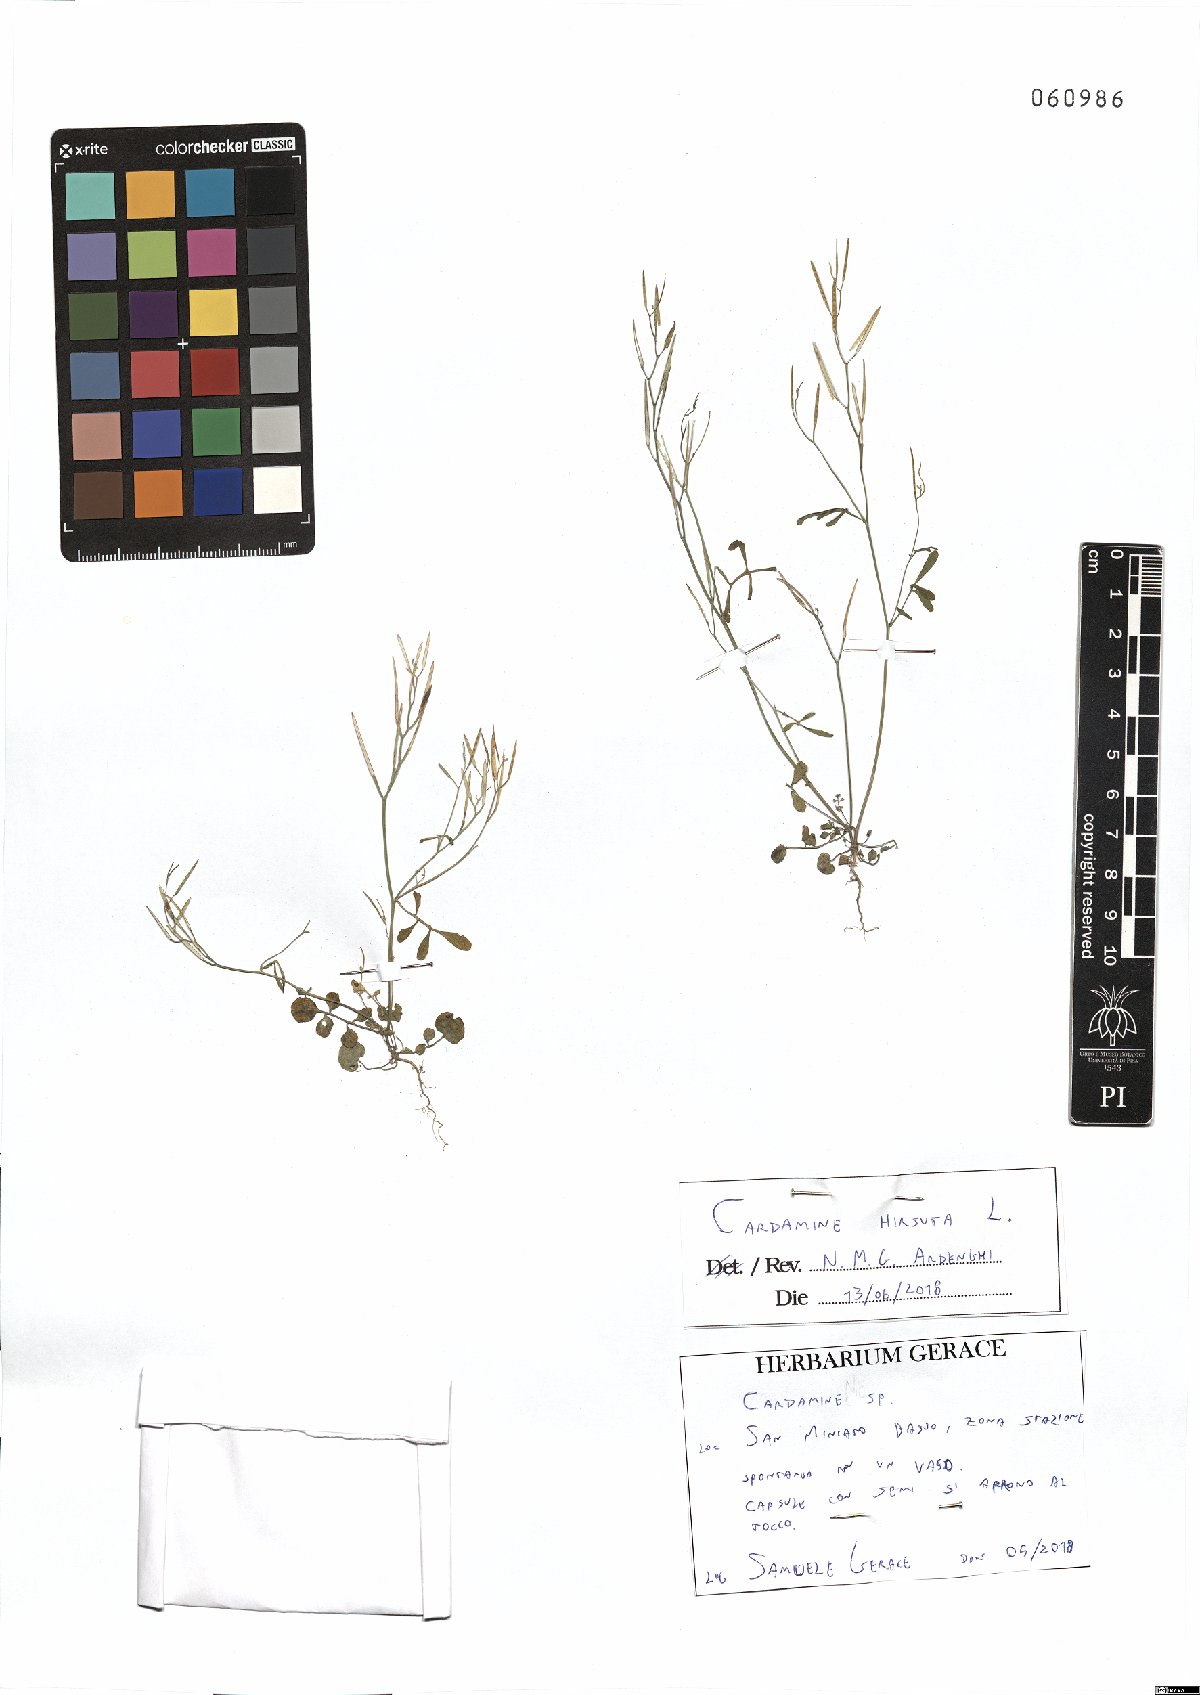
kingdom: Plantae
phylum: Tracheophyta
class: Magnoliopsida
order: Brassicales
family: Brassicaceae
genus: Cardamine
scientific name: Cardamine hirsuta
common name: Hairy bittercress
